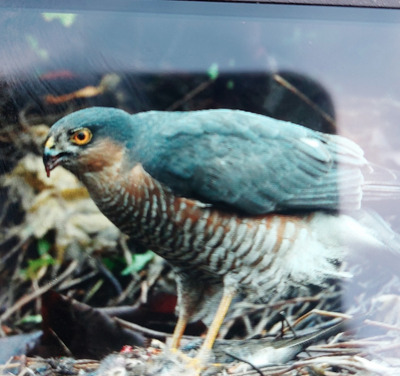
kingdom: Animalia
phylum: Chordata
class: Aves
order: Accipitriformes
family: Accipitridae
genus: Accipiter
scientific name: Accipiter nisus
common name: Spurvehøg
